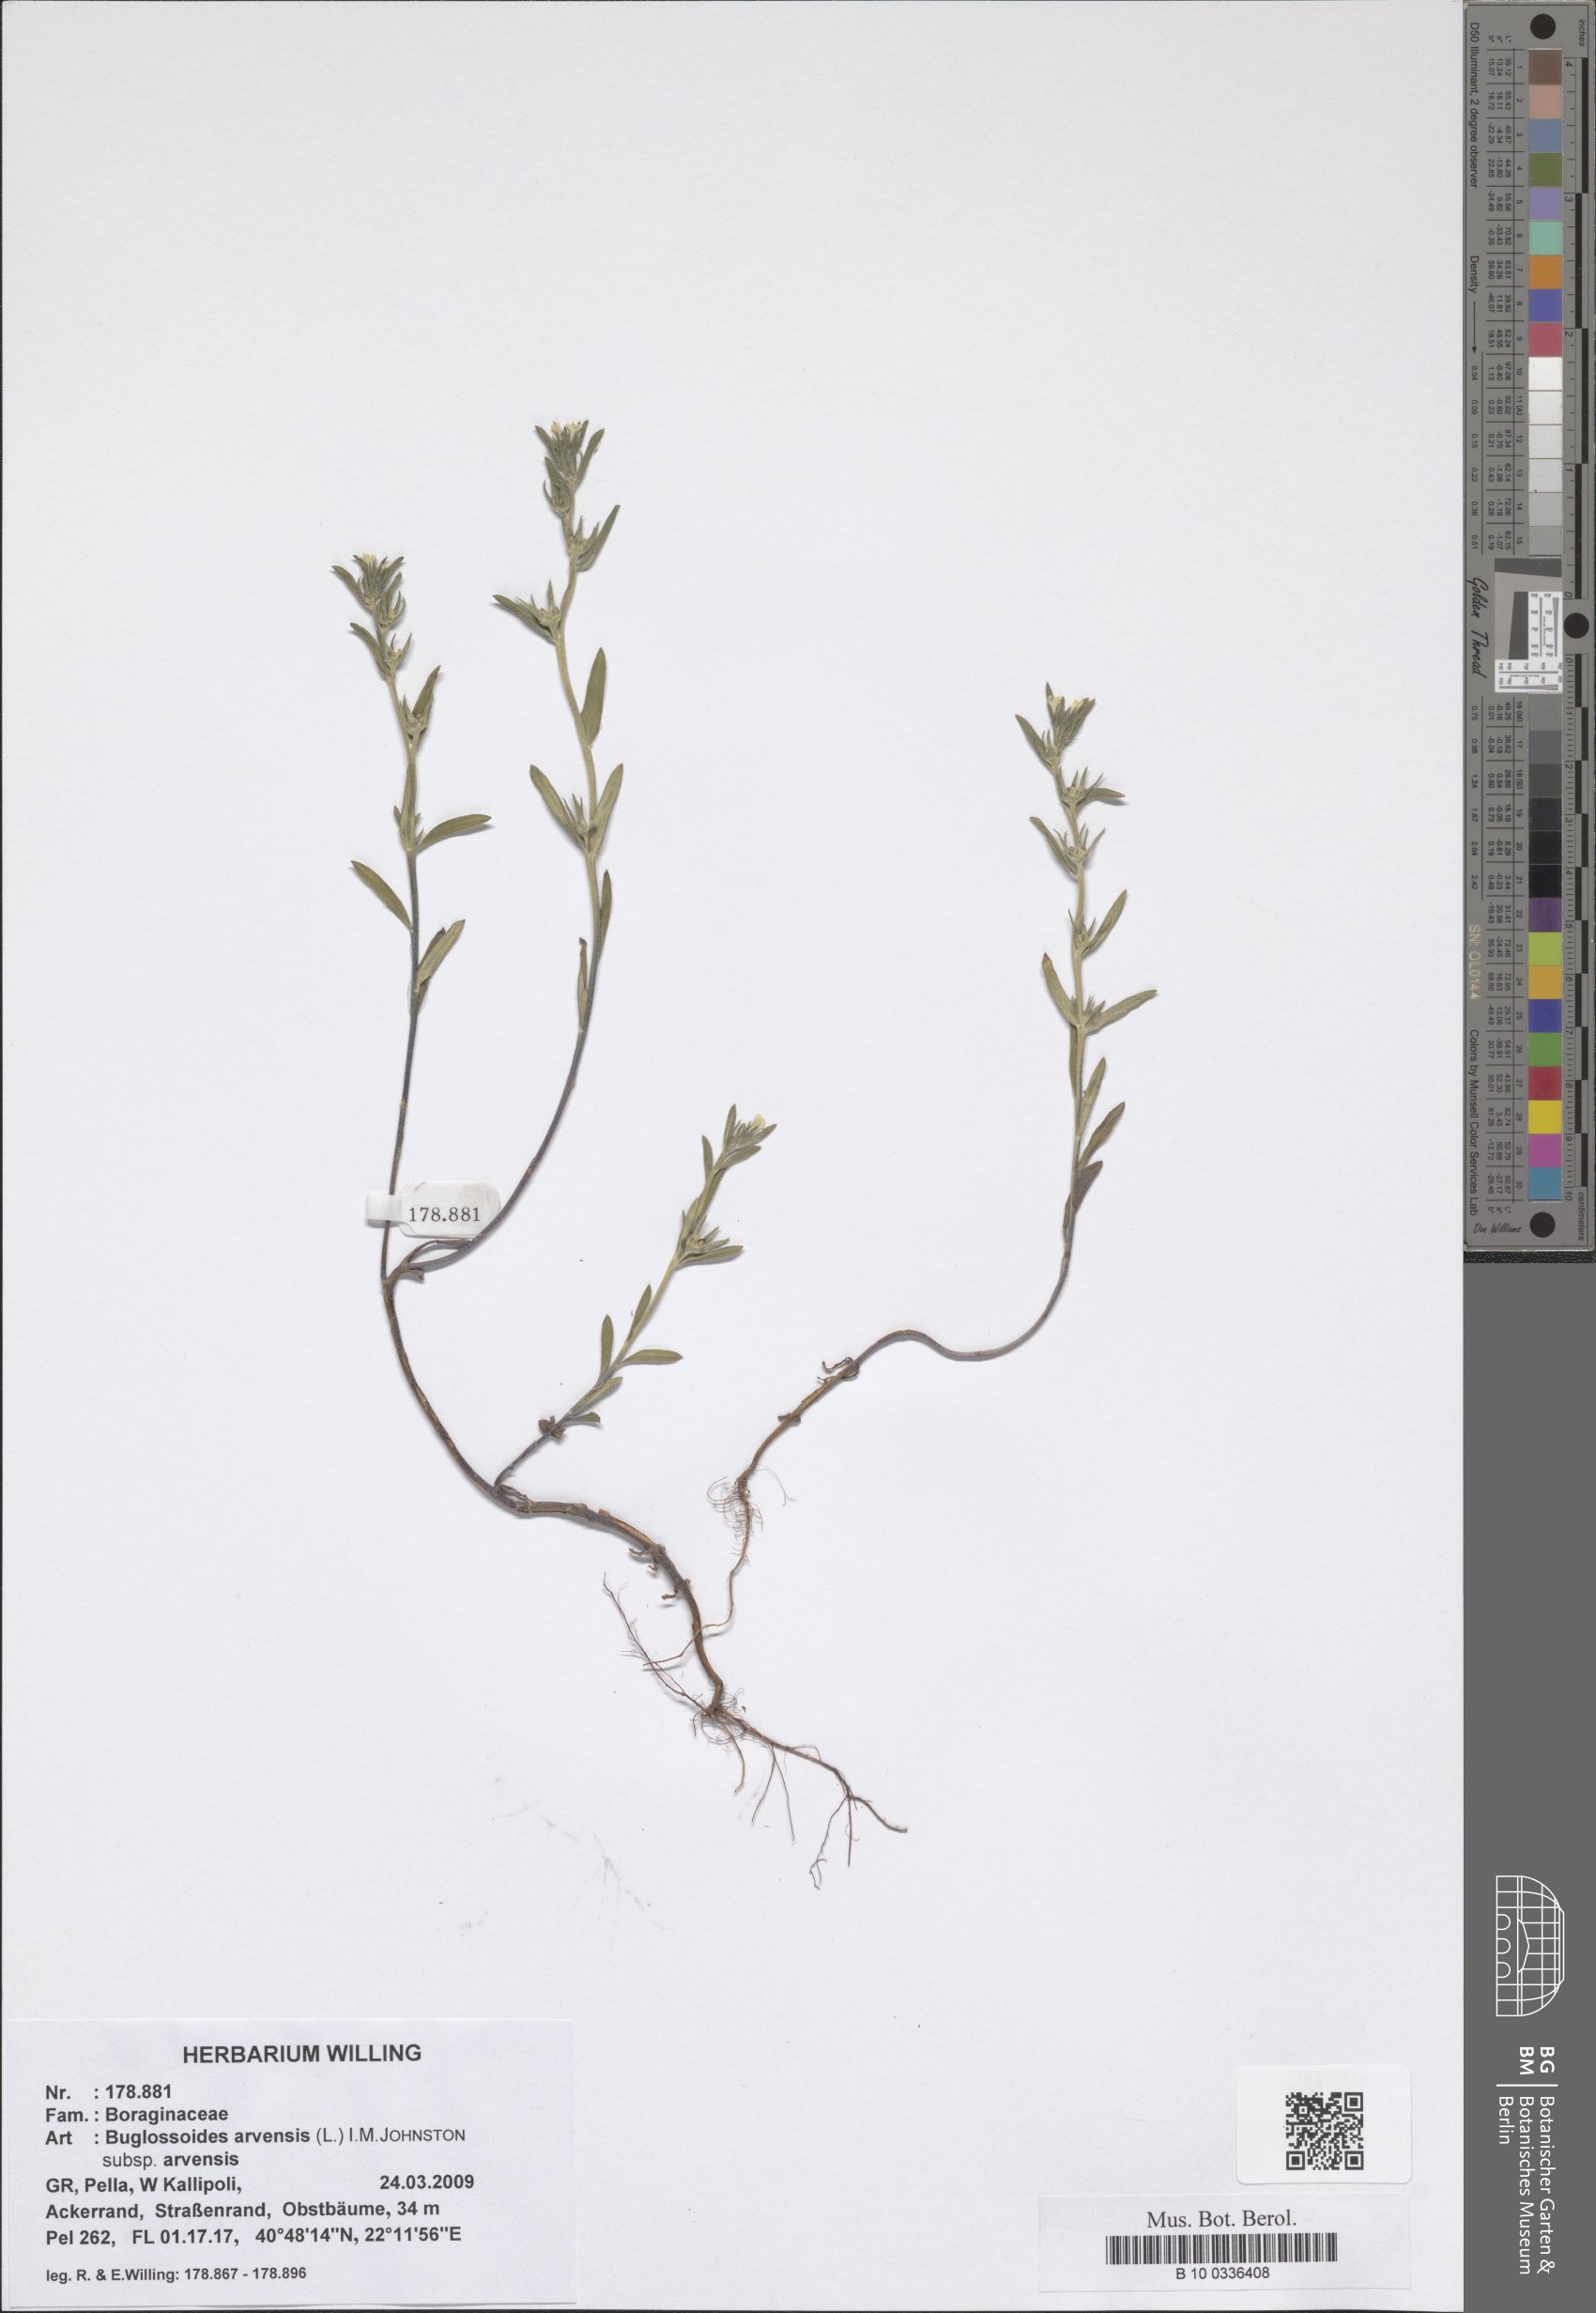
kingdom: Plantae
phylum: Tracheophyta
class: Magnoliopsida
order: Boraginales
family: Boraginaceae
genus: Buglossoides
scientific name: Buglossoides arvensis
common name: Corn gromwell
